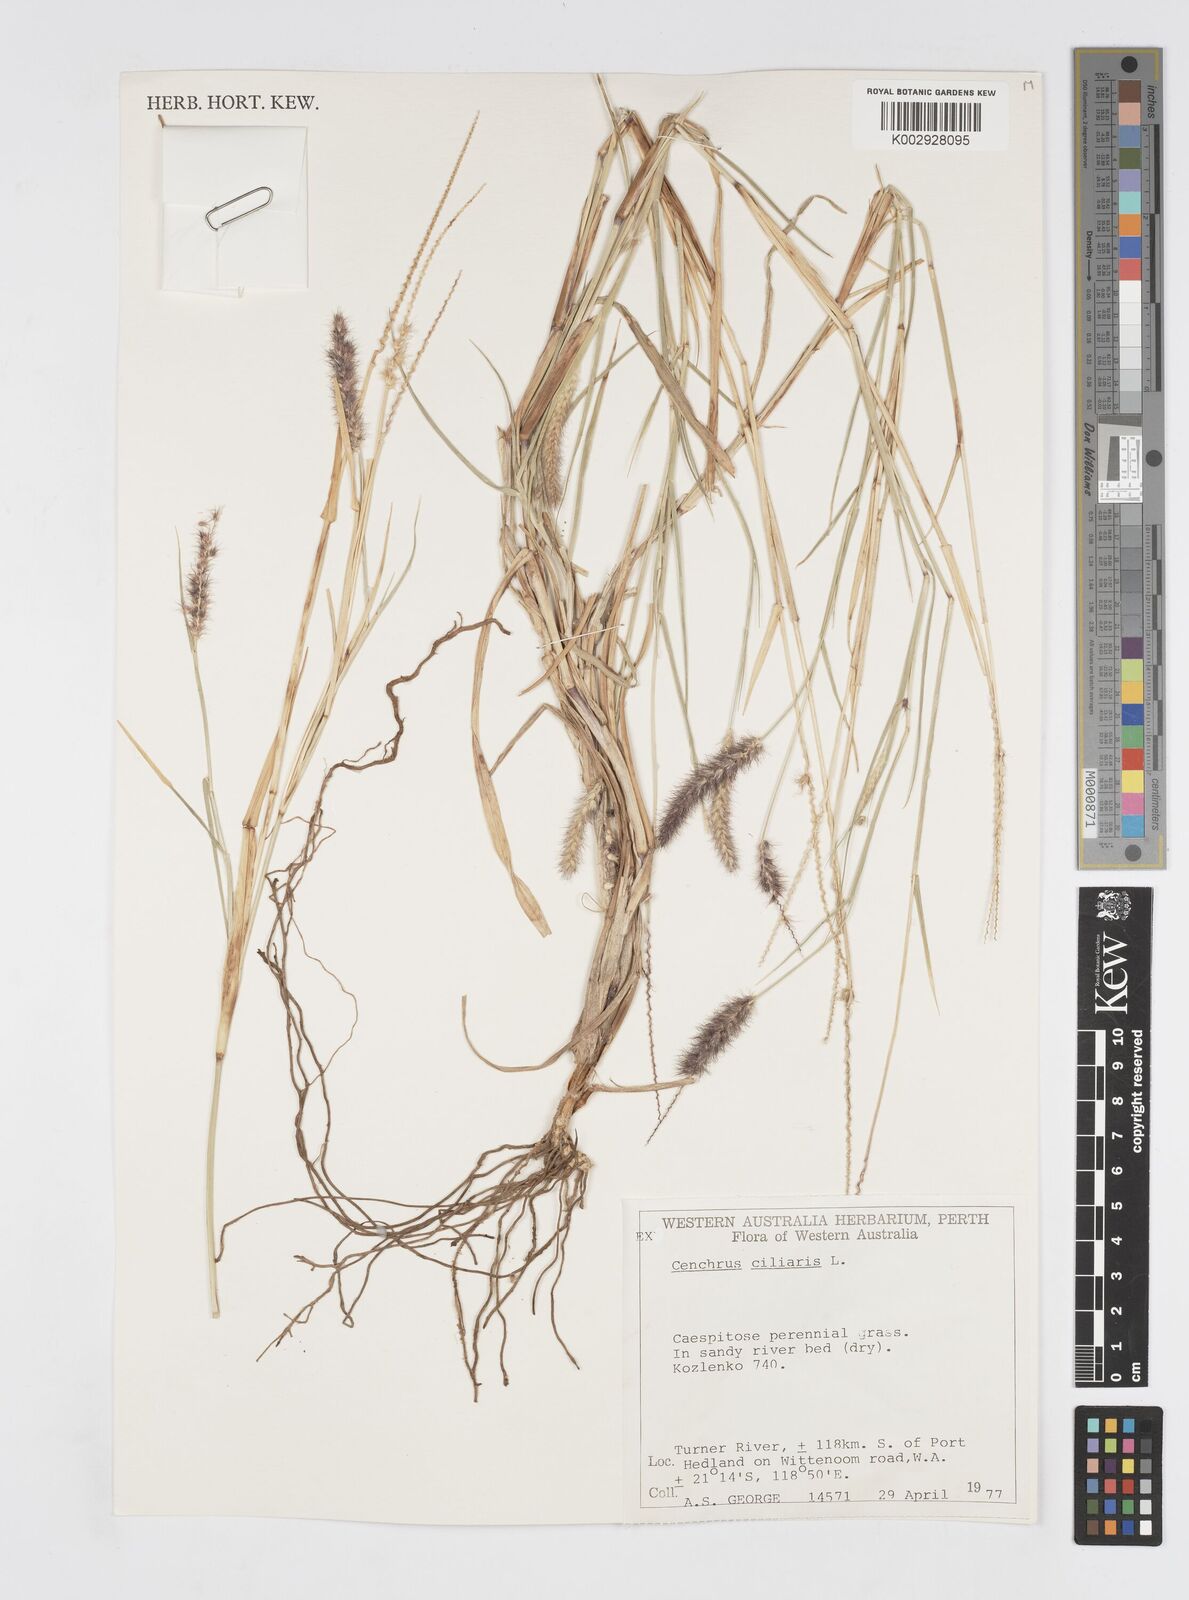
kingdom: Plantae
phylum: Tracheophyta
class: Liliopsida
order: Poales
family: Poaceae
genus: Cenchrus
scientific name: Cenchrus ciliaris
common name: Buffelgrass
